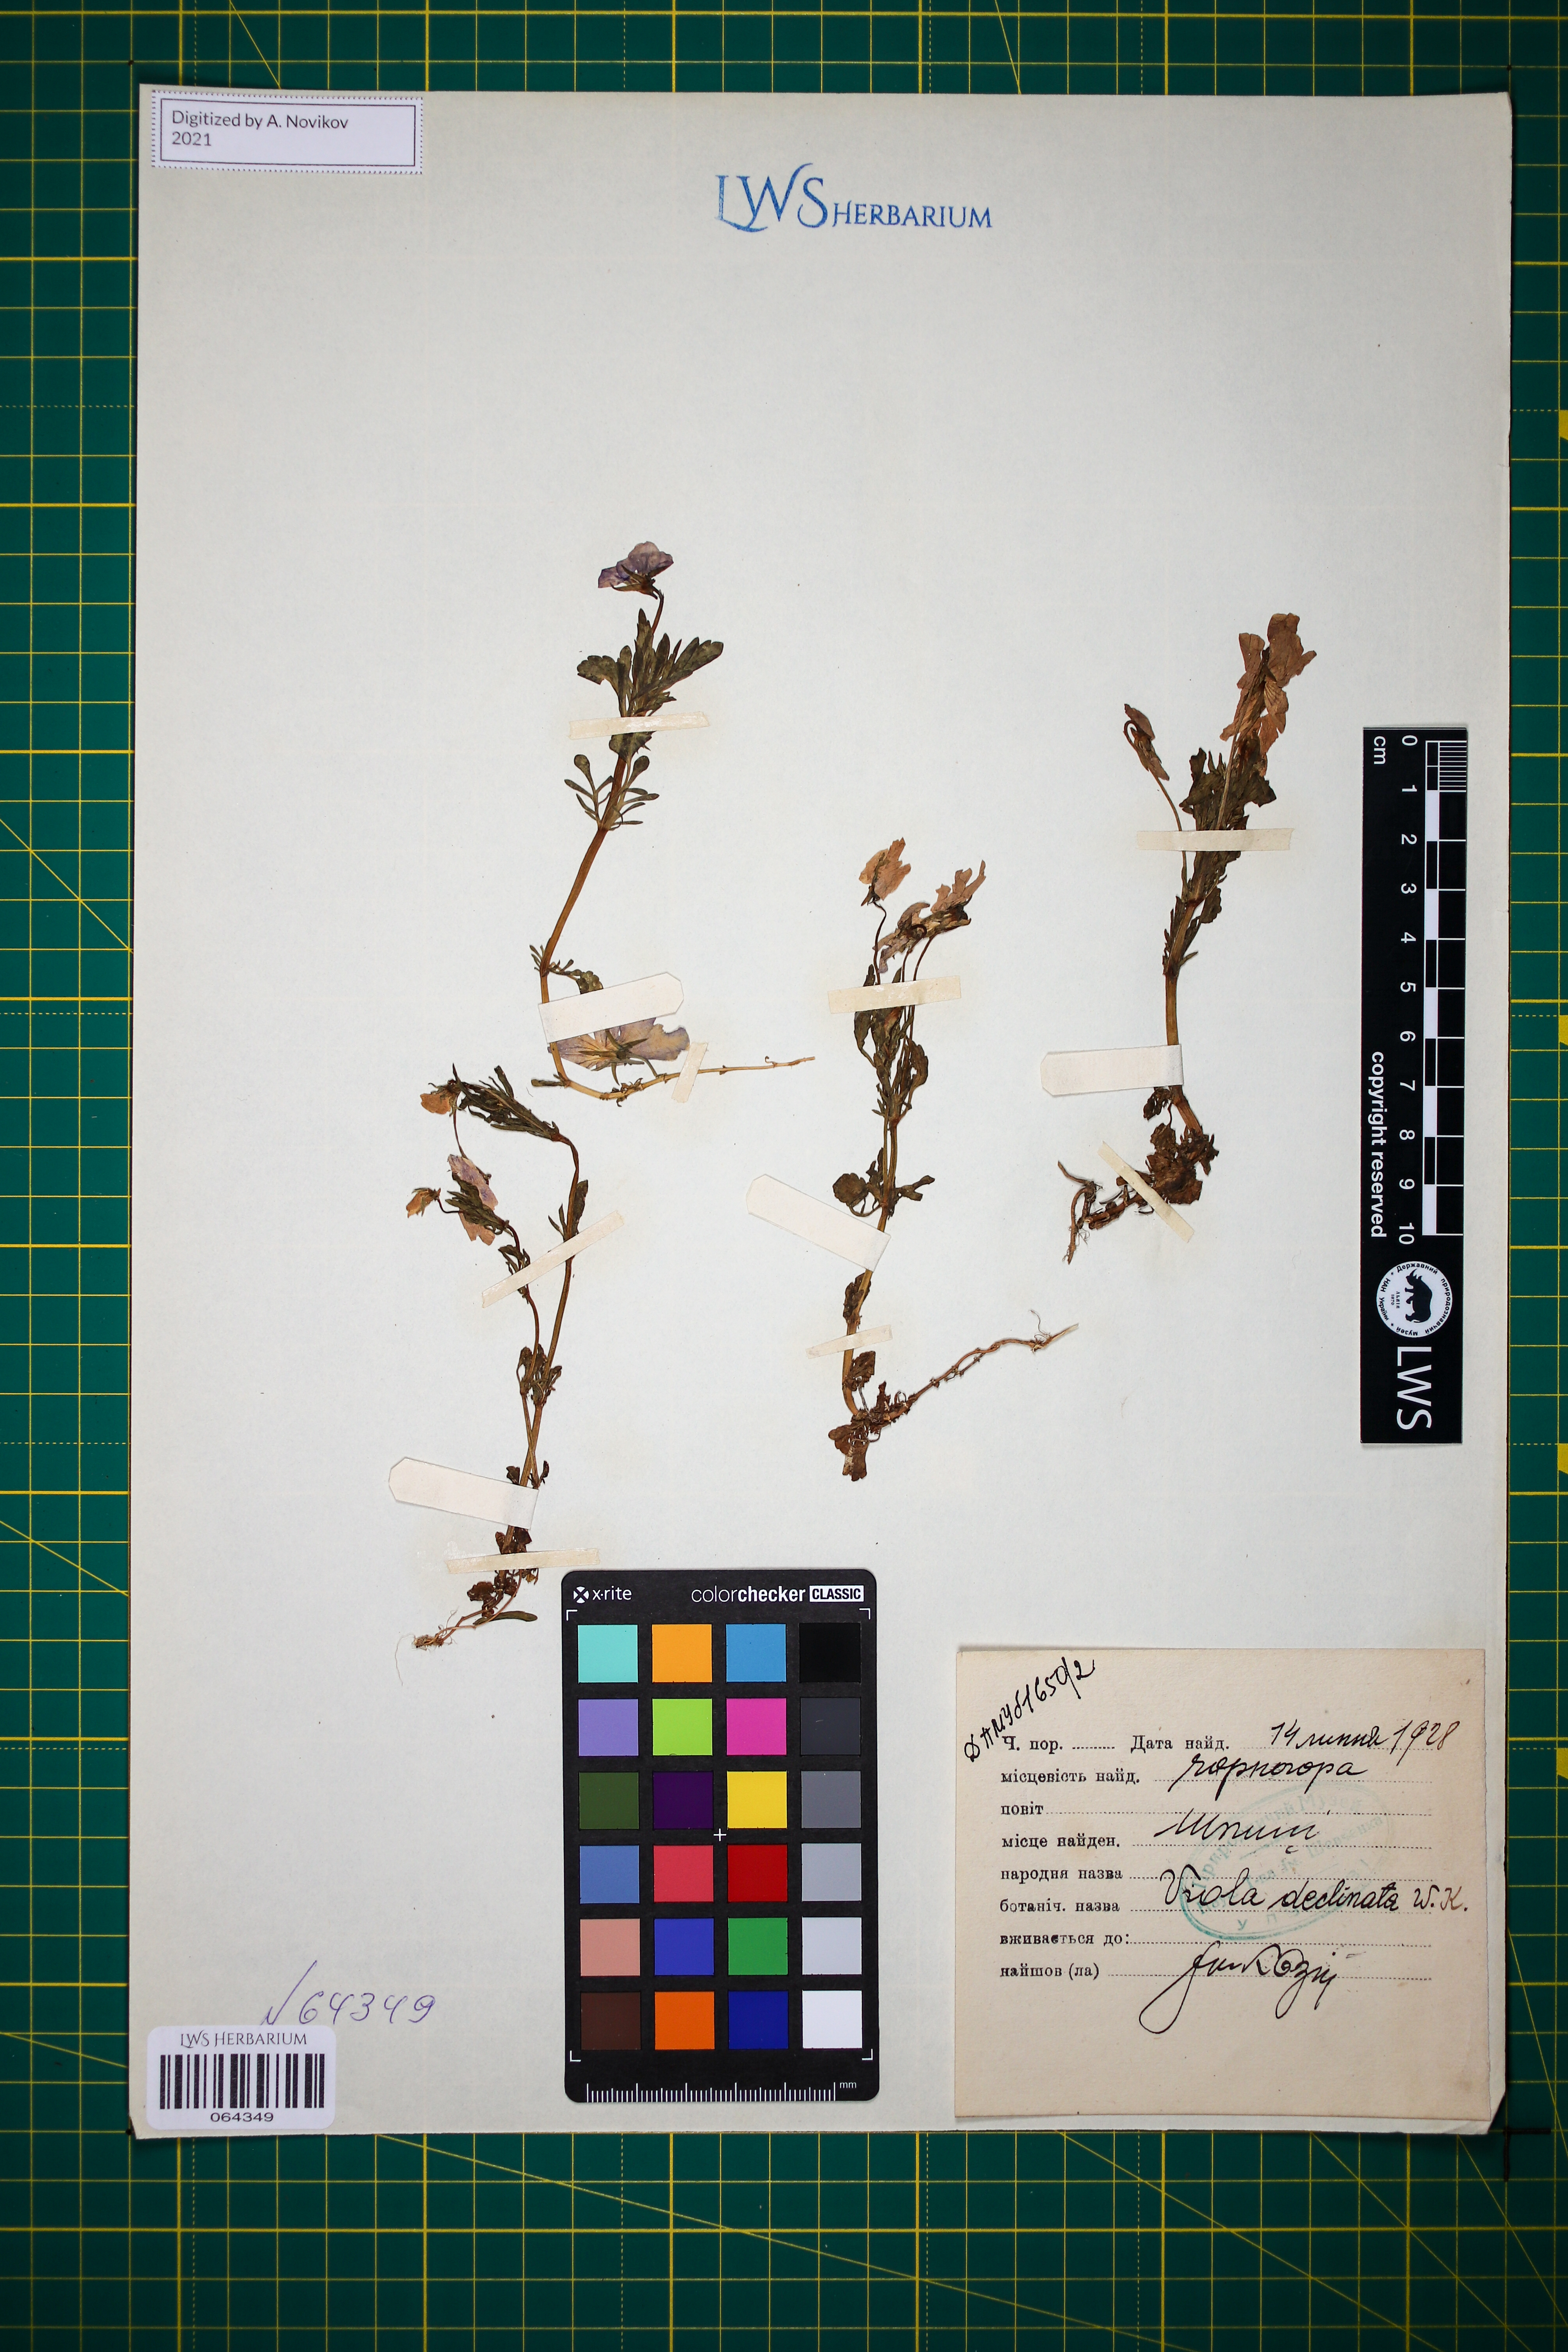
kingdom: Plantae
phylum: Tracheophyta
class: Magnoliopsida
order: Malpighiales
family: Violaceae
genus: Viola
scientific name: Viola declinata
